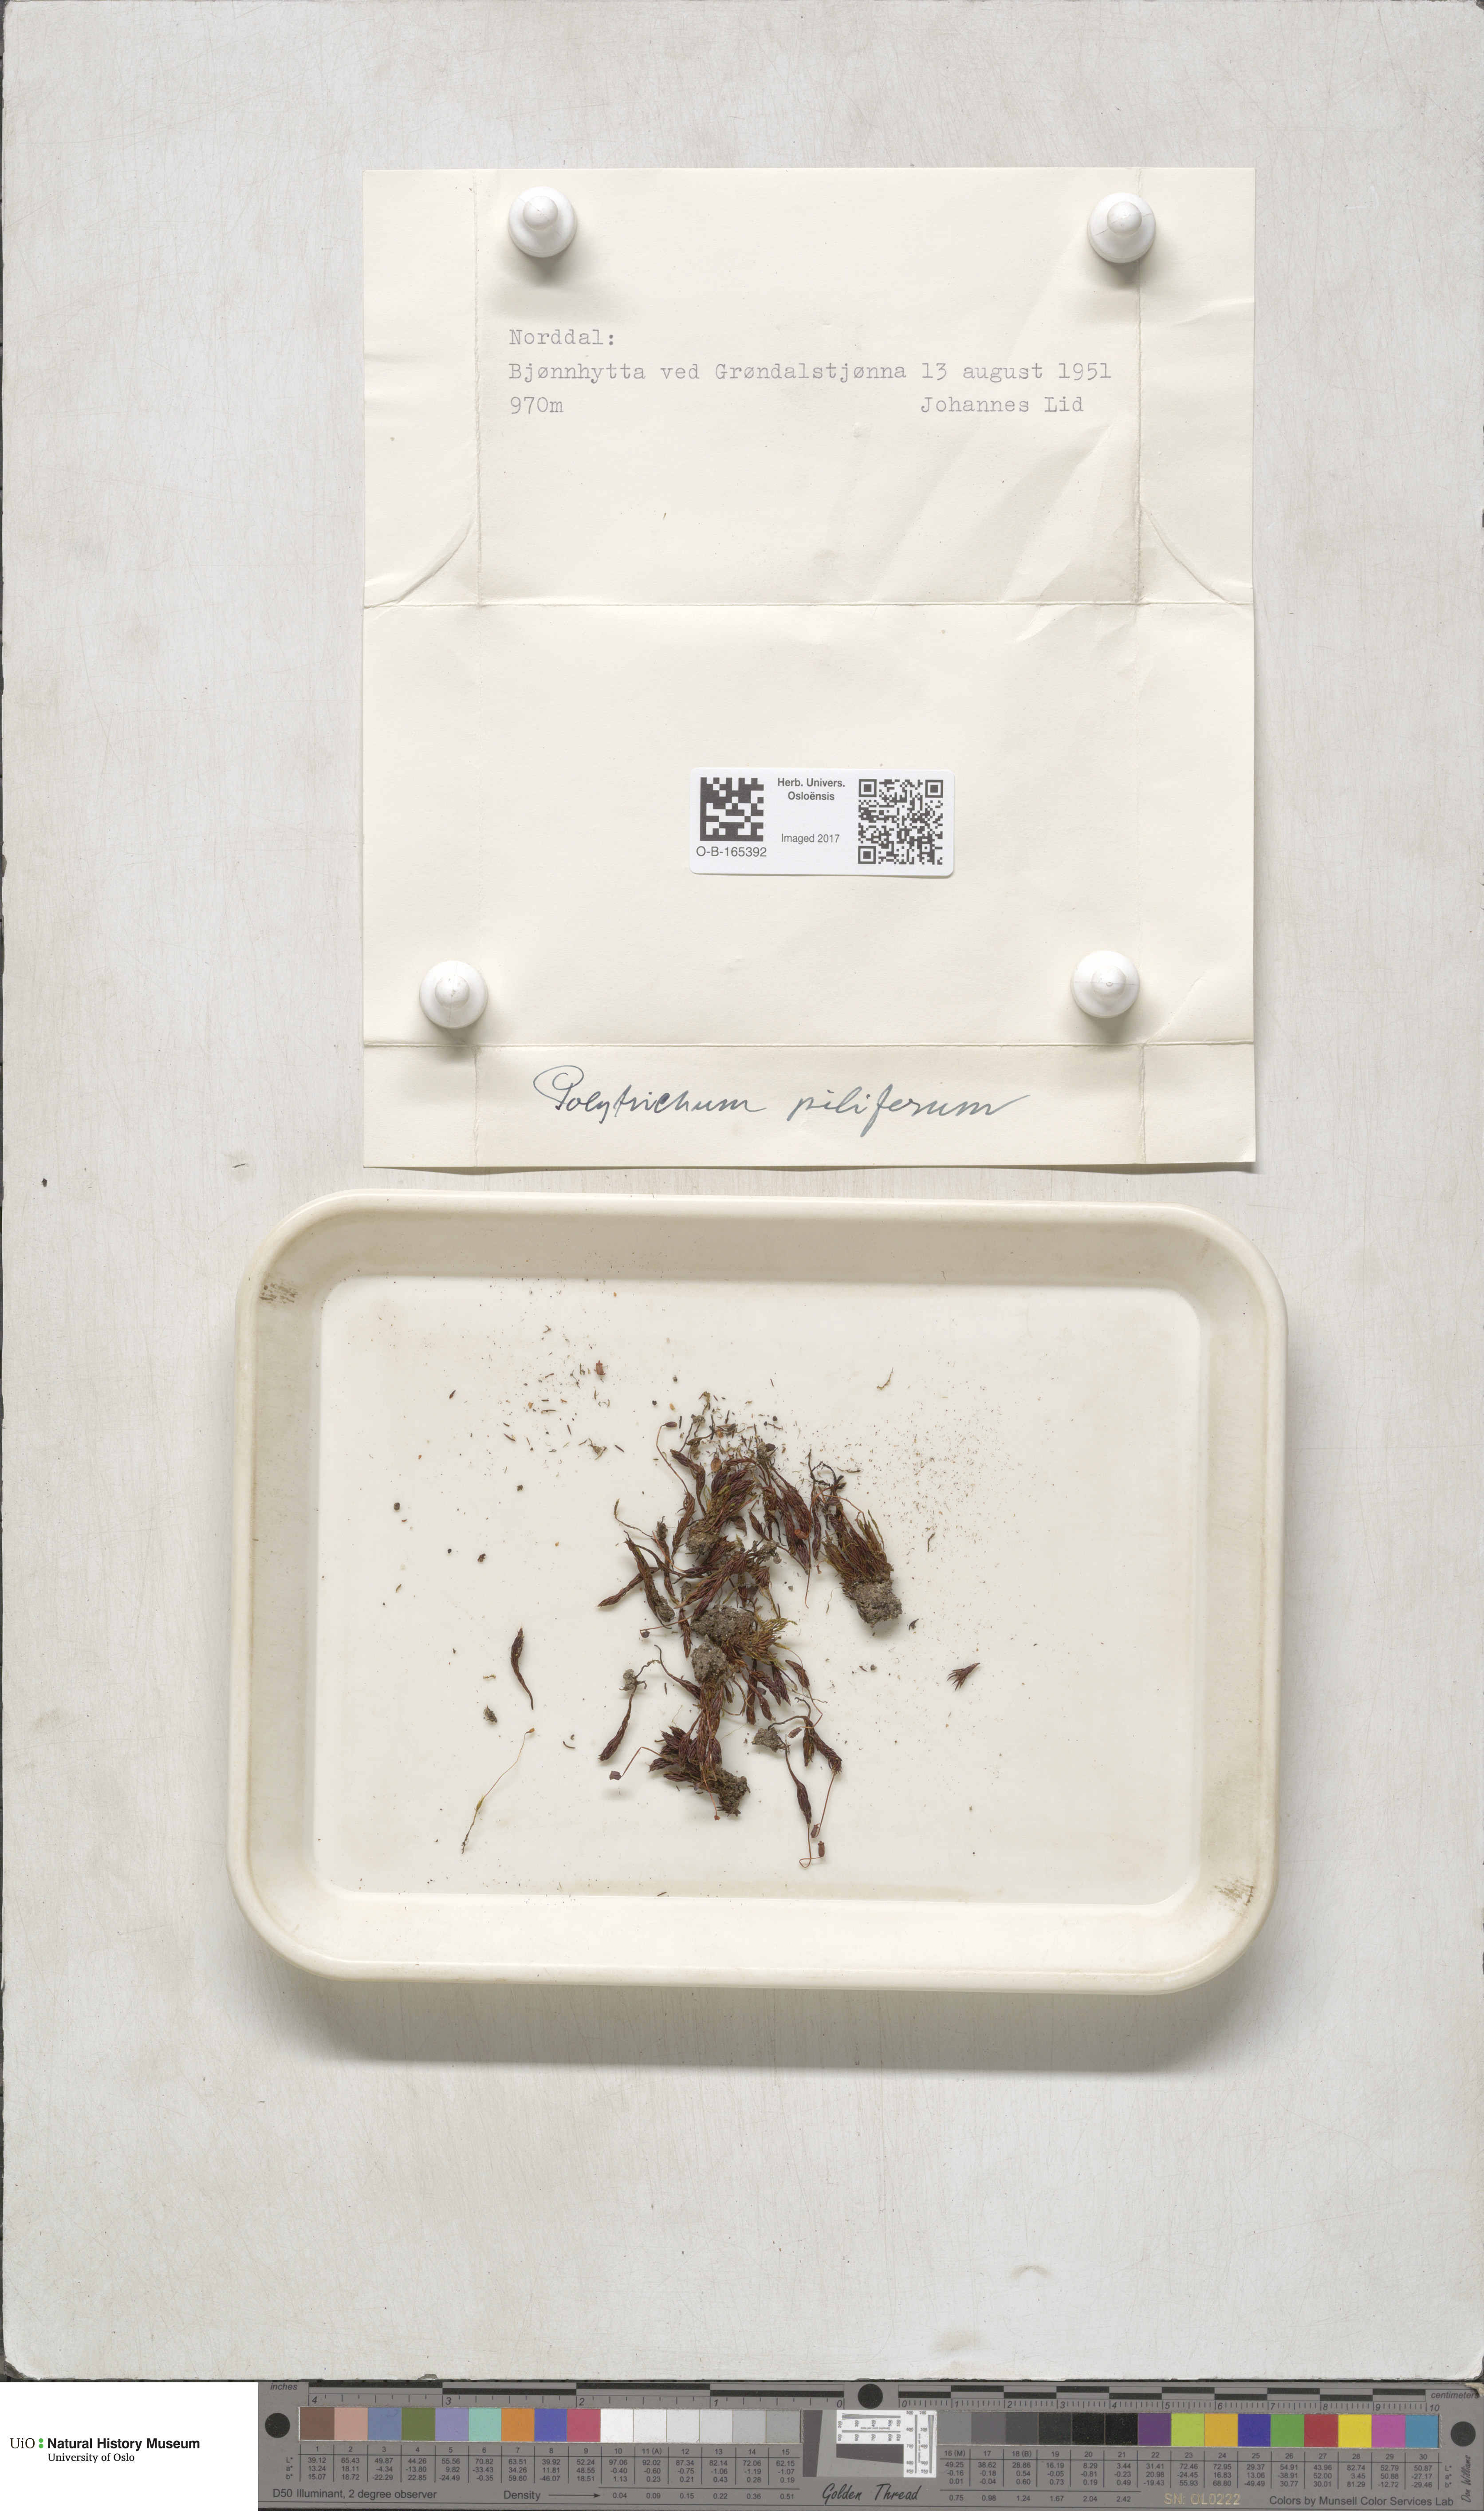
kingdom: Plantae
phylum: Bryophyta
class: Polytrichopsida
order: Polytrichales
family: Polytrichaceae
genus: Polytrichum
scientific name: Polytrichum piliferum
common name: Bristly haircap
